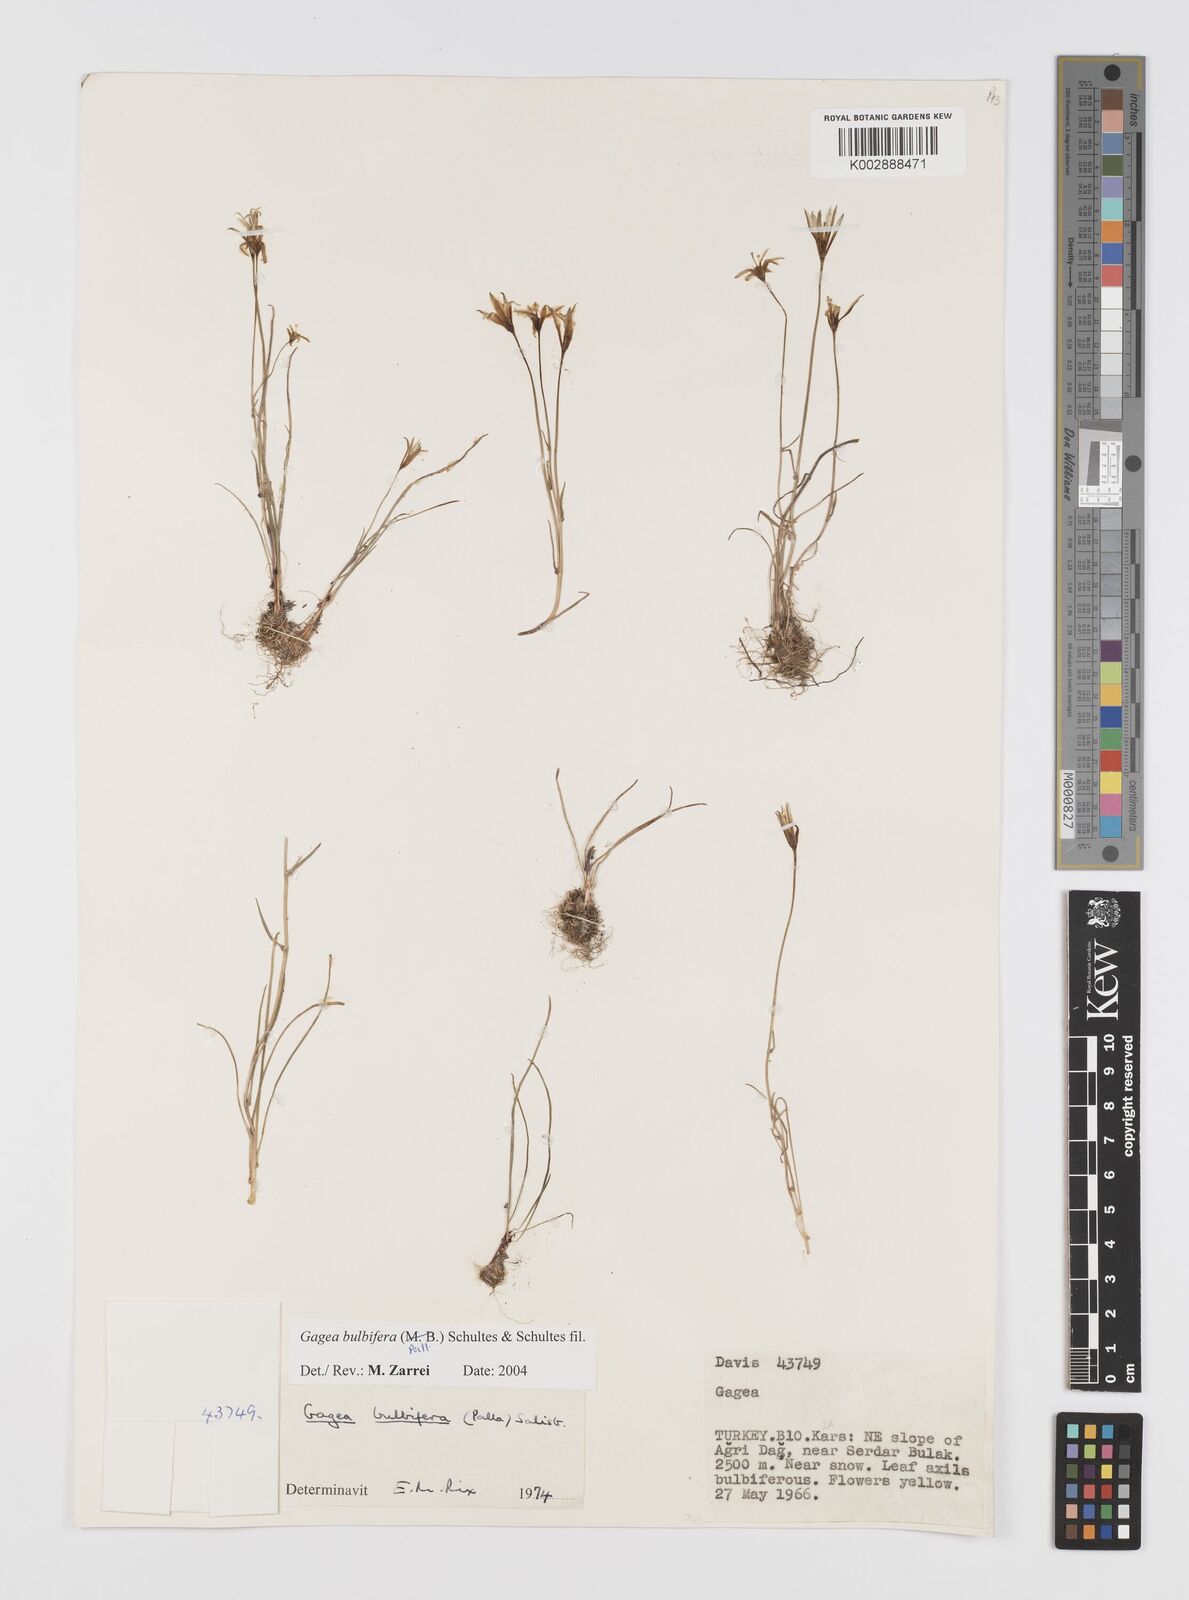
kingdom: Plantae
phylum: Tracheophyta
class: Liliopsida
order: Liliales
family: Liliaceae
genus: Gagea
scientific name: Gagea bulbifera
